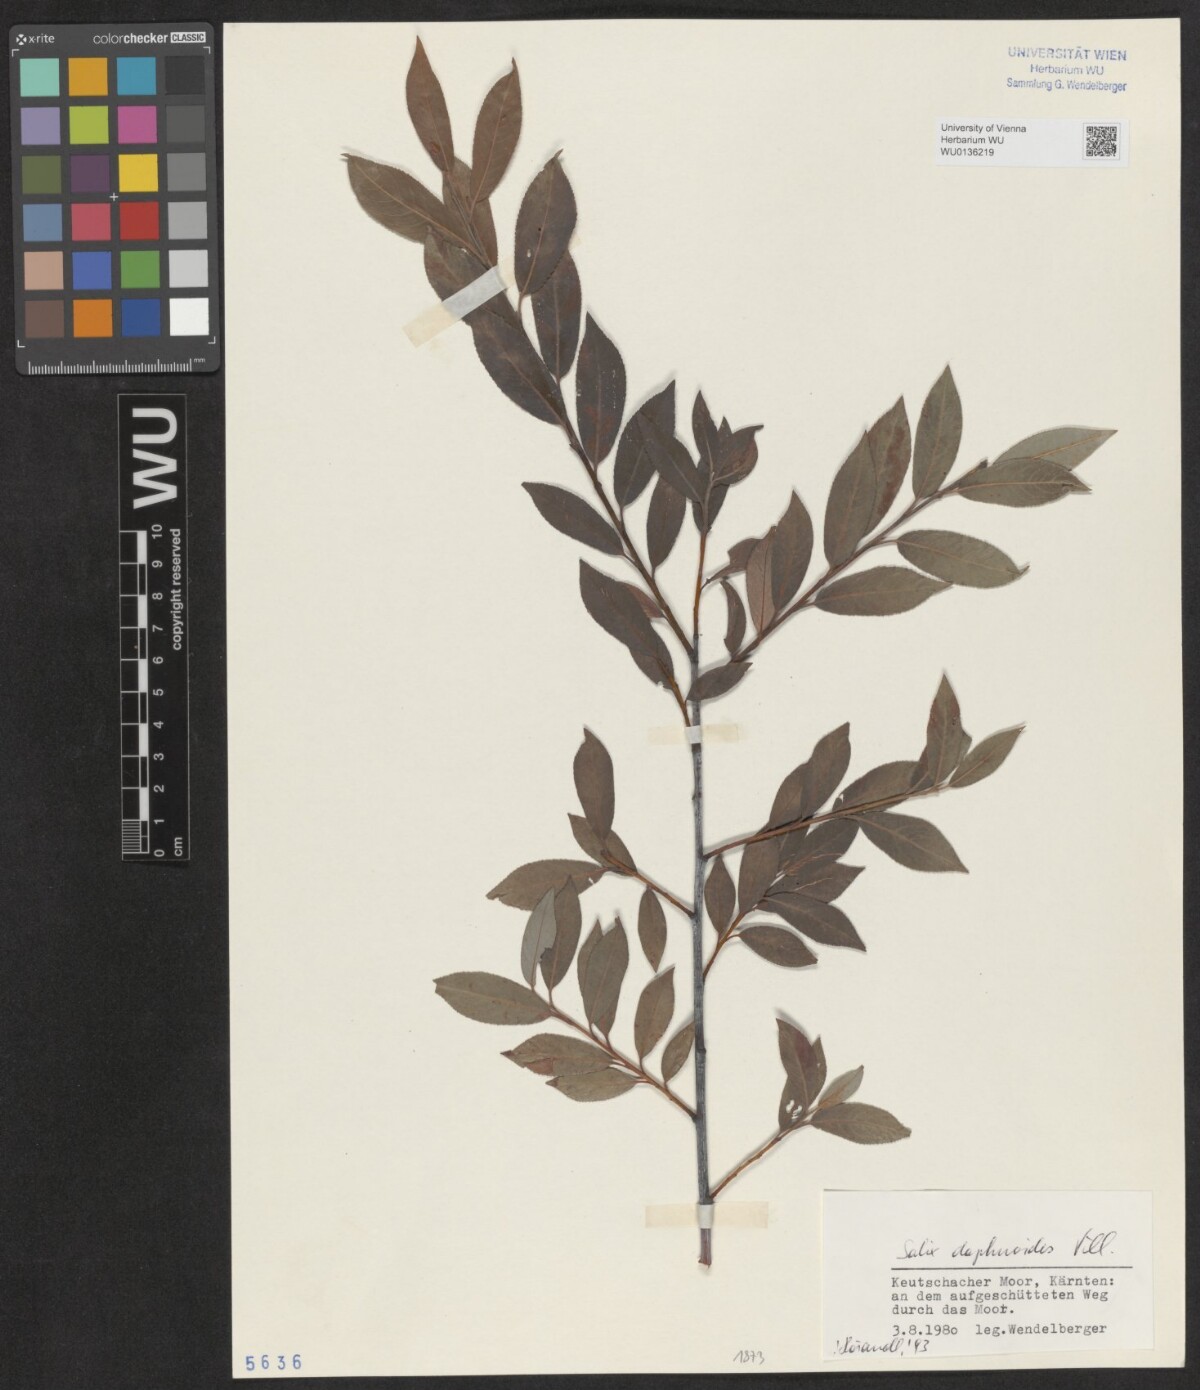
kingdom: Plantae
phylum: Tracheophyta
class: Magnoliopsida
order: Malpighiales
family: Salicaceae
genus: Salix
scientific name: Salix daphnoides
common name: European violet-willow
